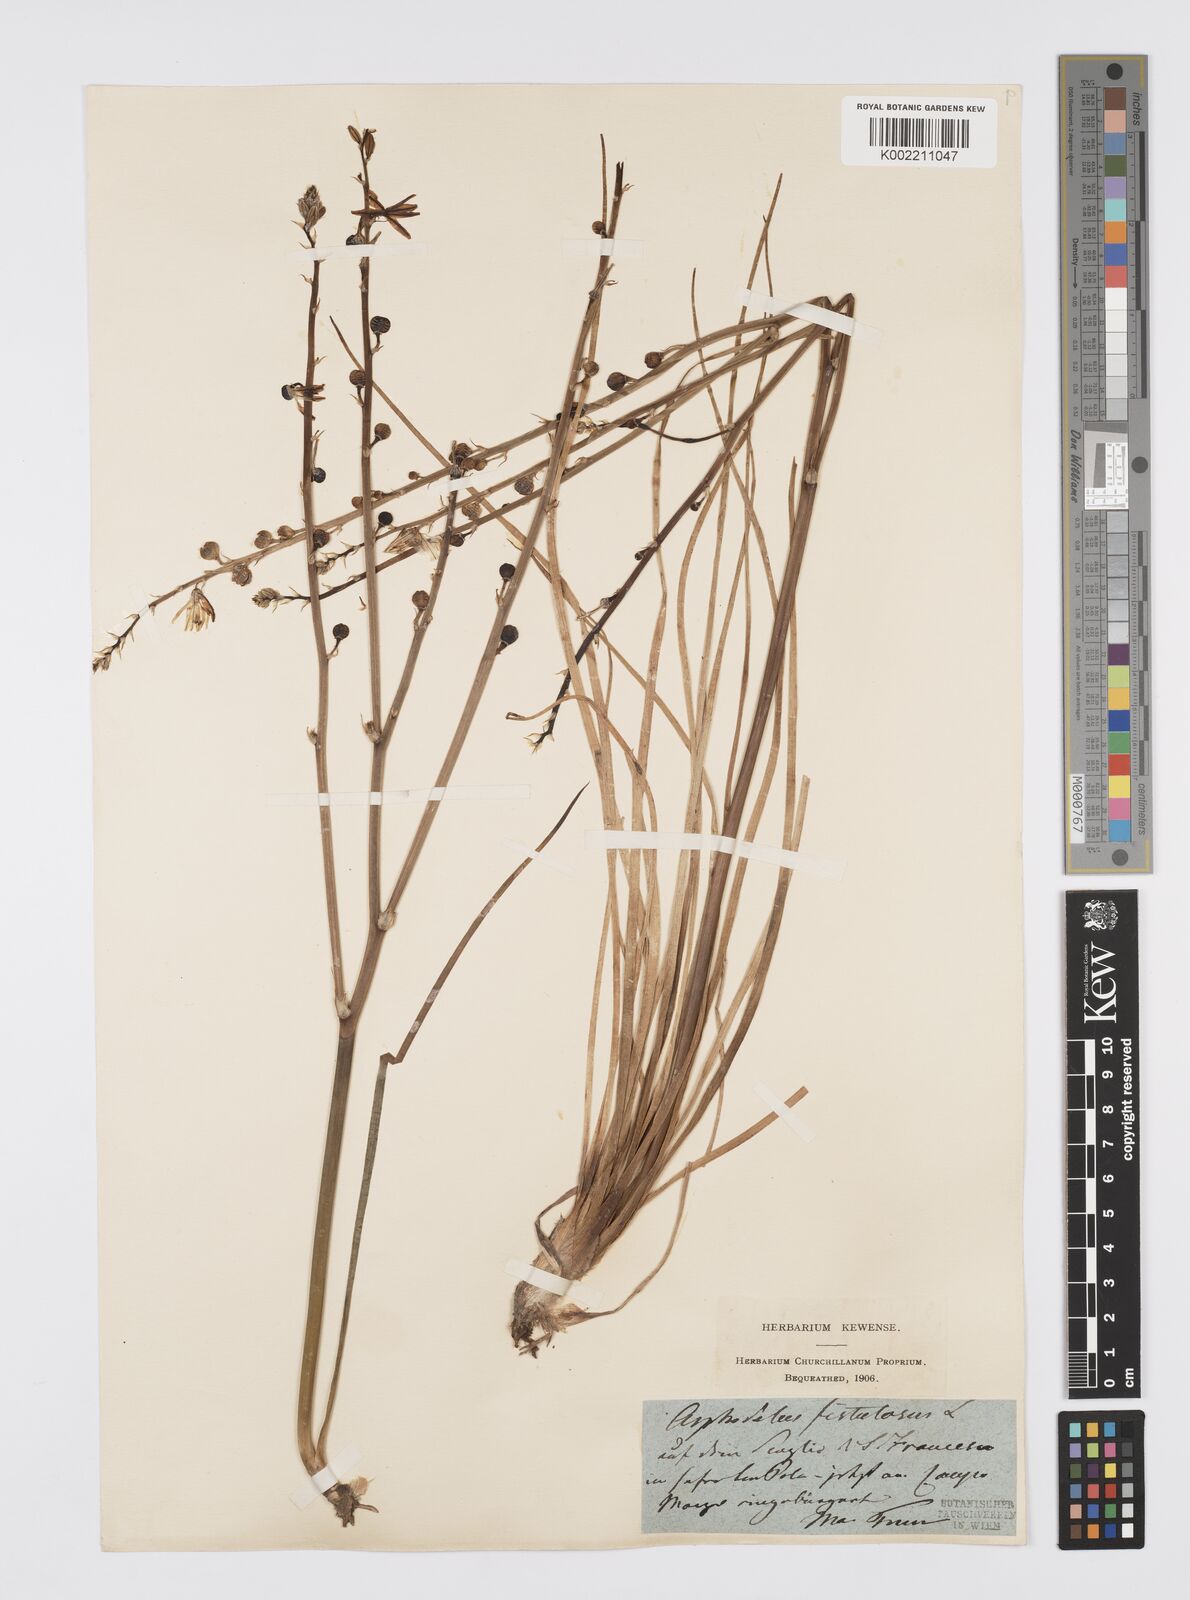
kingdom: Plantae
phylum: Tracheophyta
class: Liliopsida
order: Asparagales
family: Asphodelaceae
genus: Asphodelus
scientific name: Asphodelus fistulosus
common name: Onionweed
